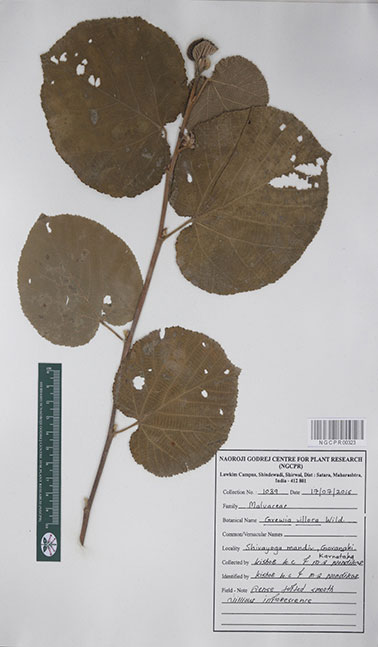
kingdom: Plantae
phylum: Tracheophyta
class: Magnoliopsida
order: Malvales
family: Malvaceae
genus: Grewia
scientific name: Grewia villosa
